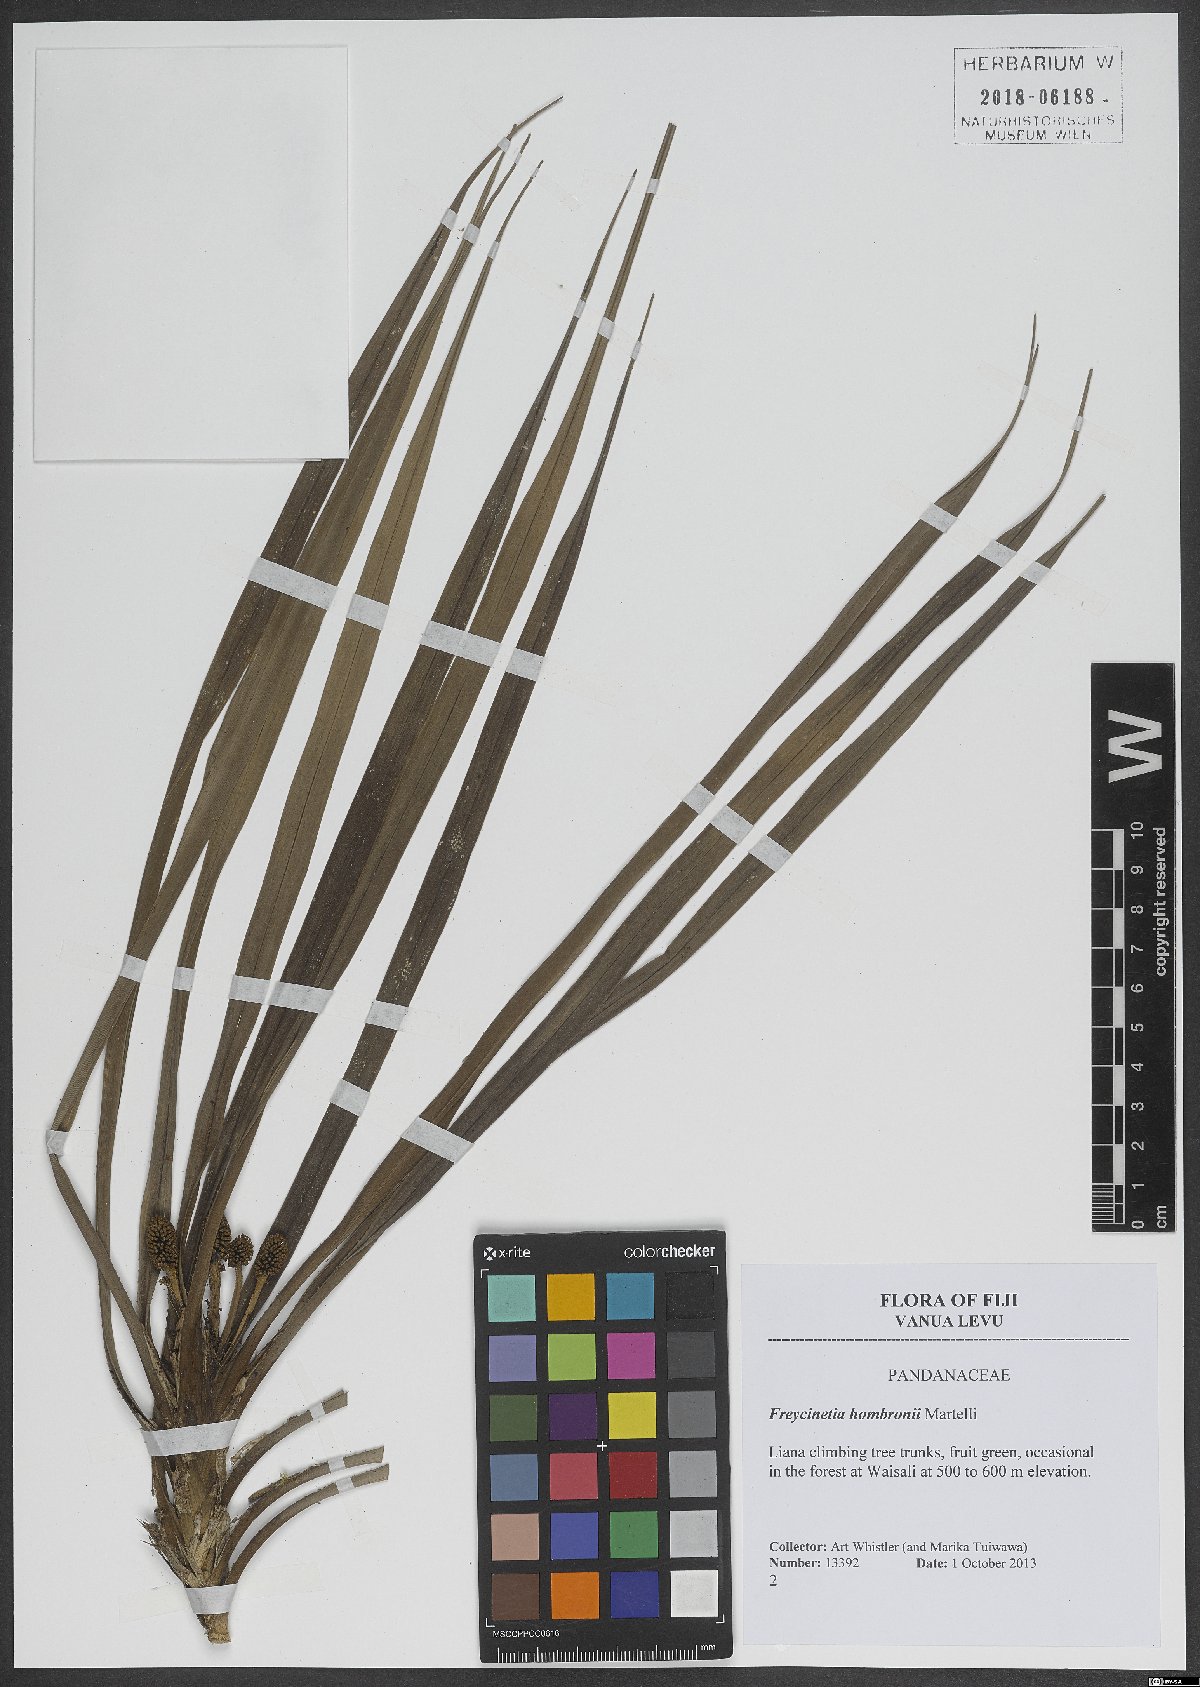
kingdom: Plantae
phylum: Tracheophyta
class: Liliopsida
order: Pandanales
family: Pandanaceae
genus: Freycinetia
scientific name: Freycinetia hombronii
